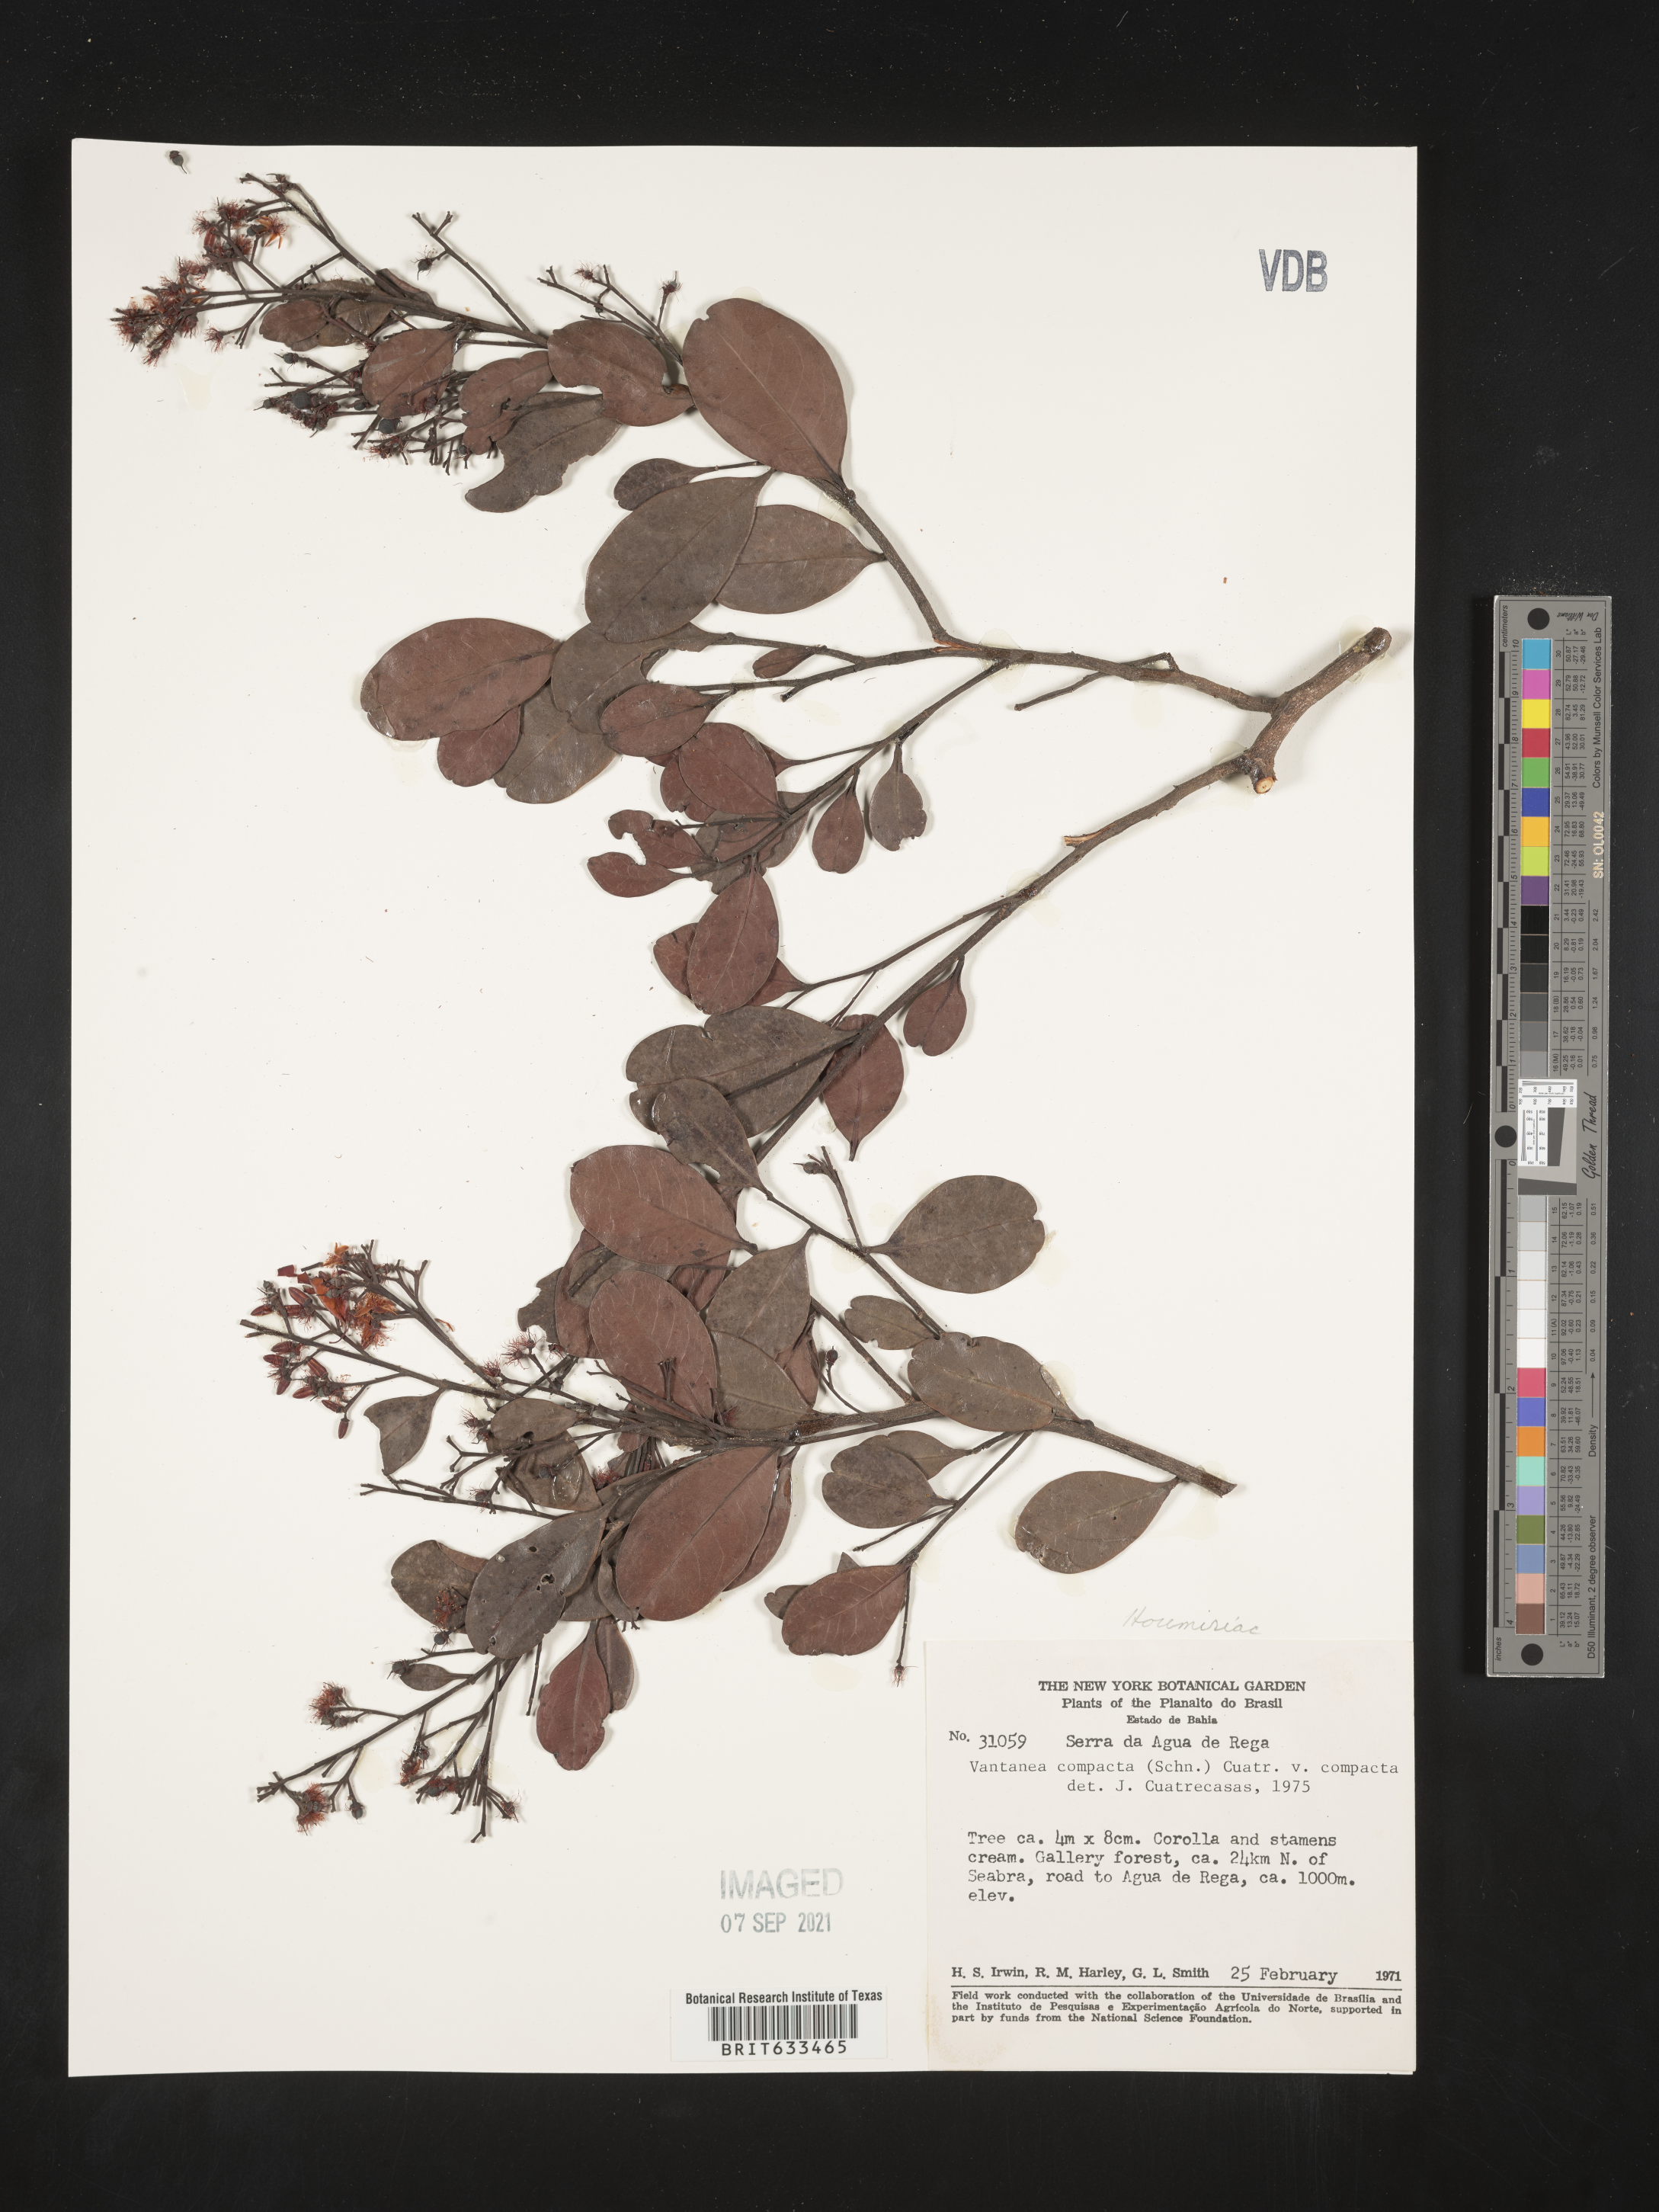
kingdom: Plantae
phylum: Tracheophyta
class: Magnoliopsida
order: Malpighiales
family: Humiriaceae
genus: Vantanea
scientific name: Vantanea
